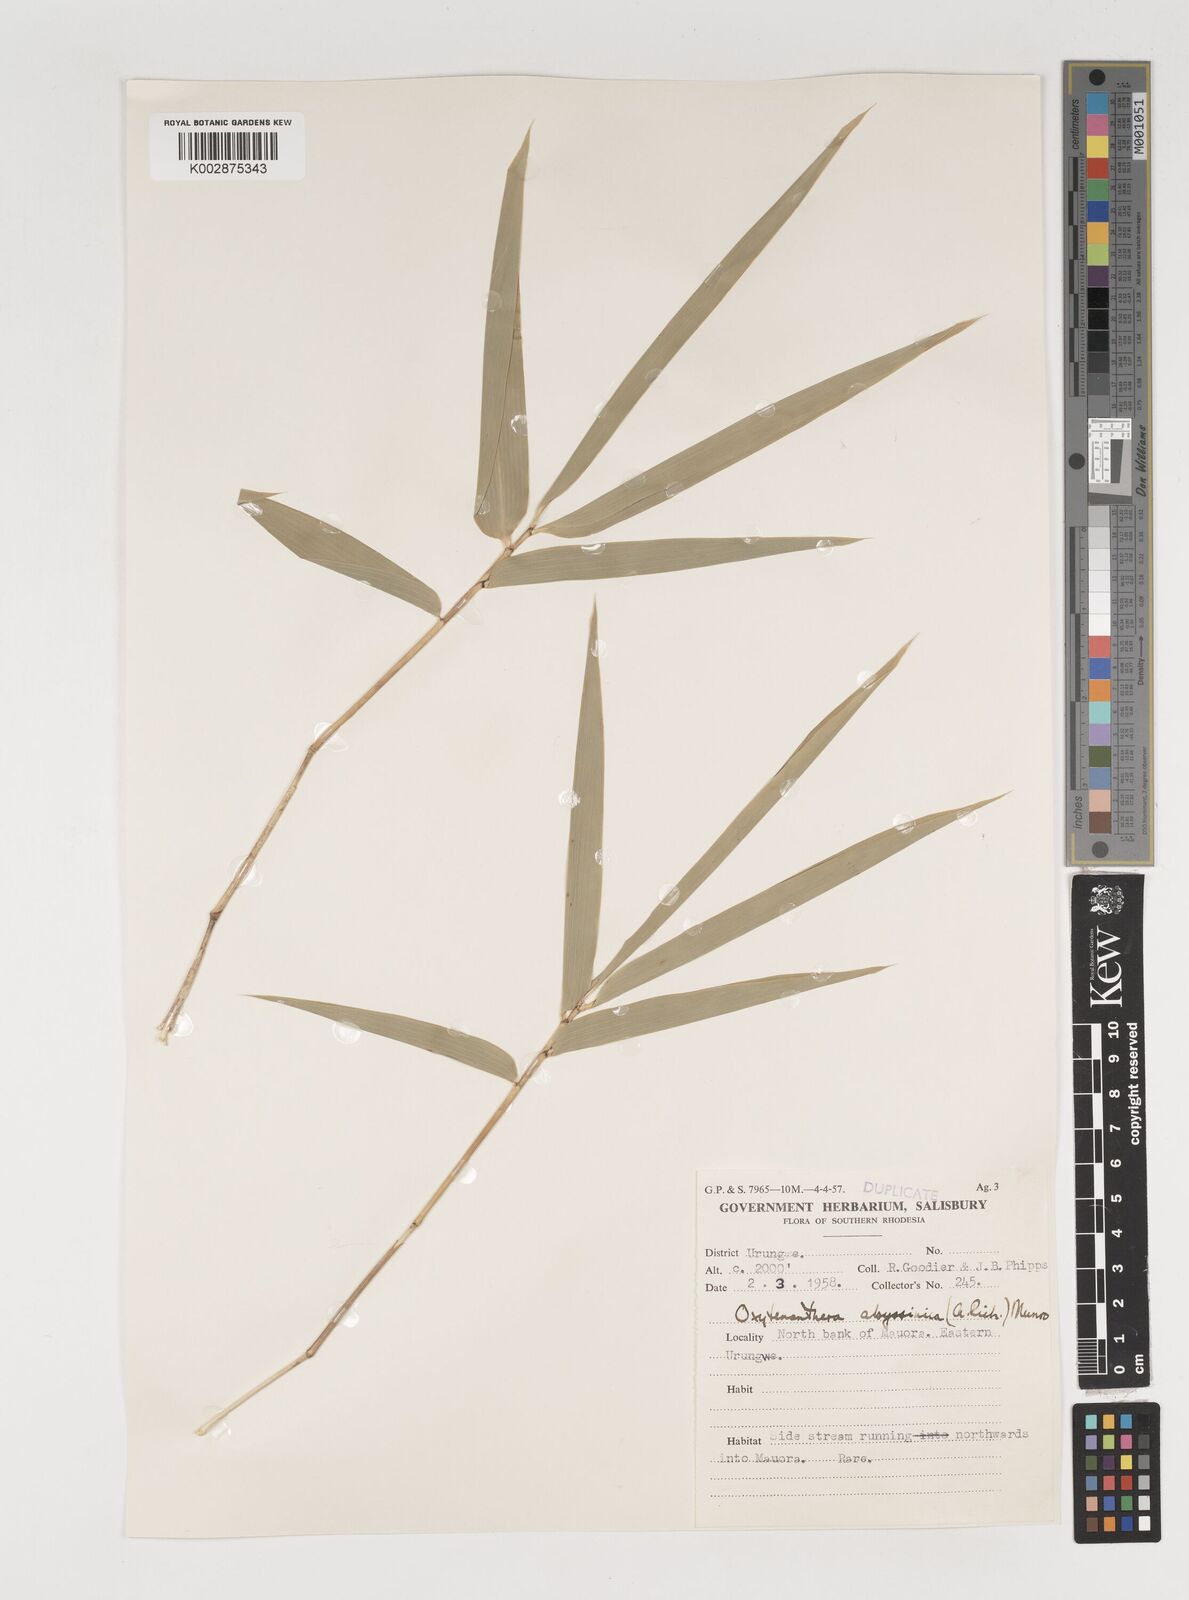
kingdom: Plantae
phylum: Tracheophyta
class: Liliopsida
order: Poales
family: Poaceae
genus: Oxytenanthera
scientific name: Oxytenanthera abyssinica
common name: Wine bamboo
